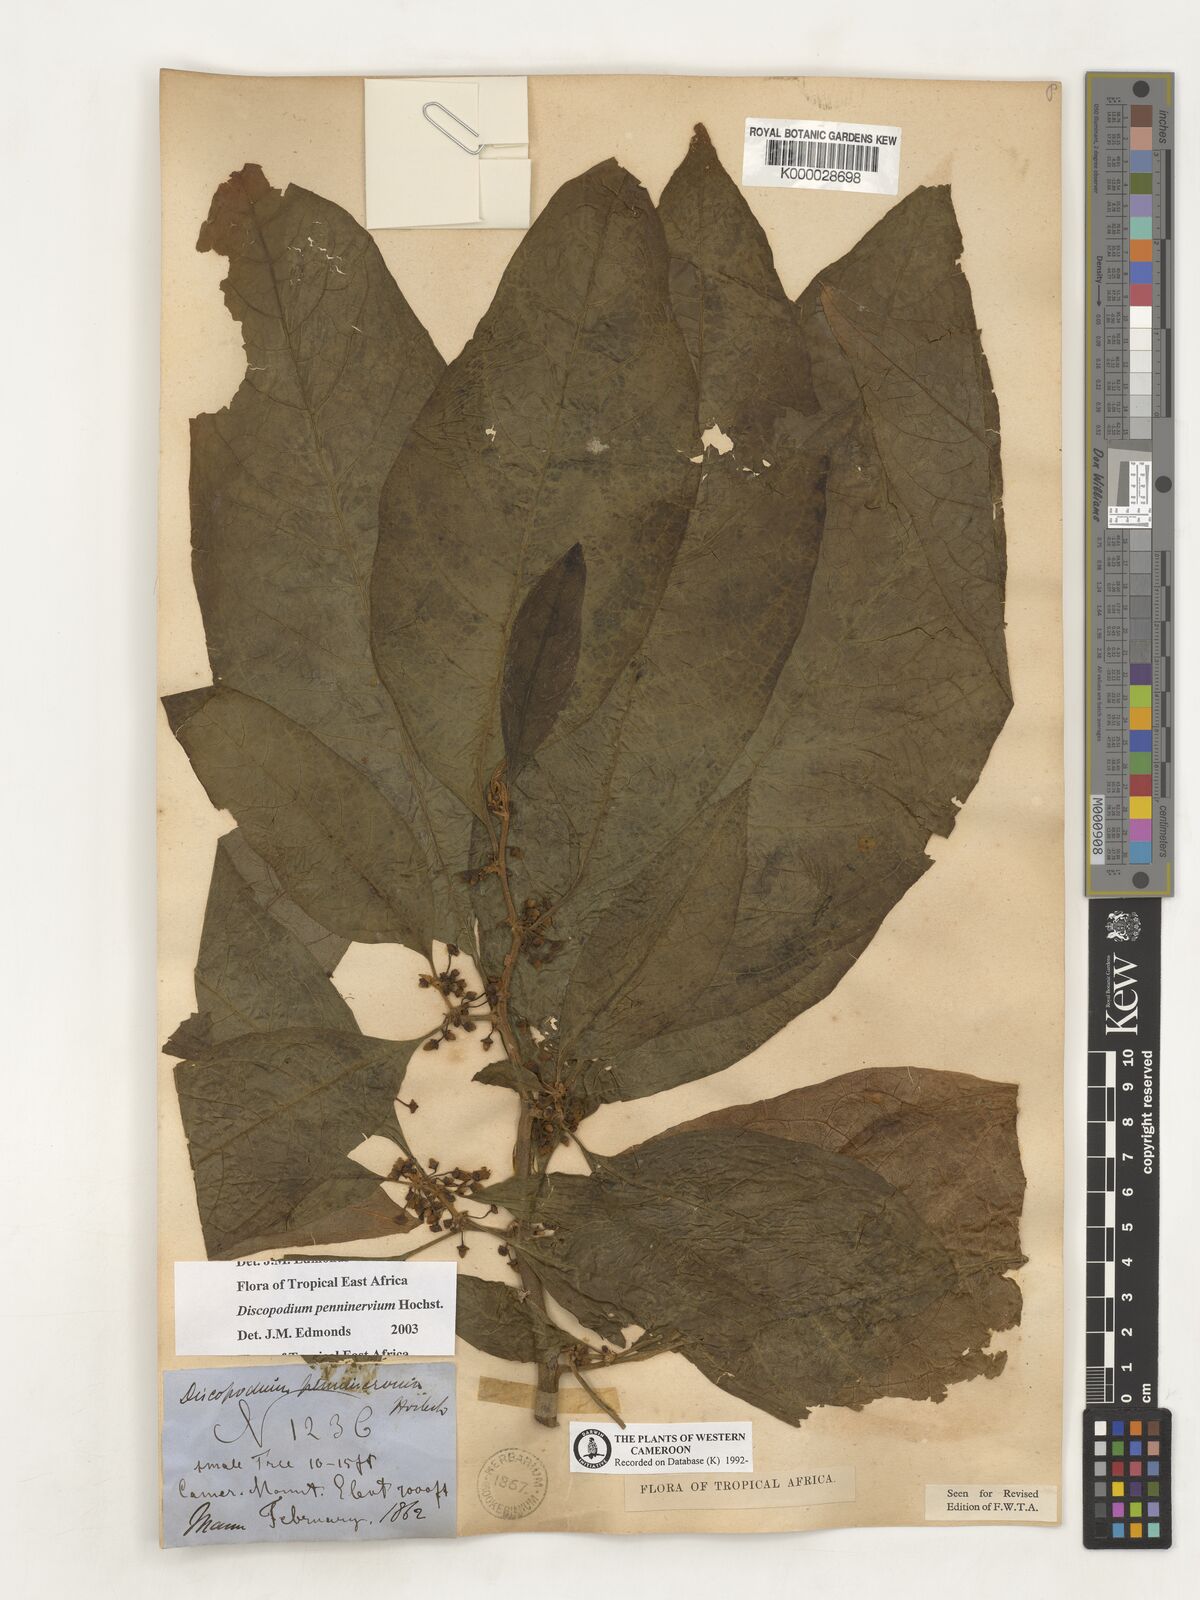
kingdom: Plantae
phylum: Tracheophyta
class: Magnoliopsida
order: Solanales
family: Solanaceae
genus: Discopodium
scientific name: Discopodium penninervium
